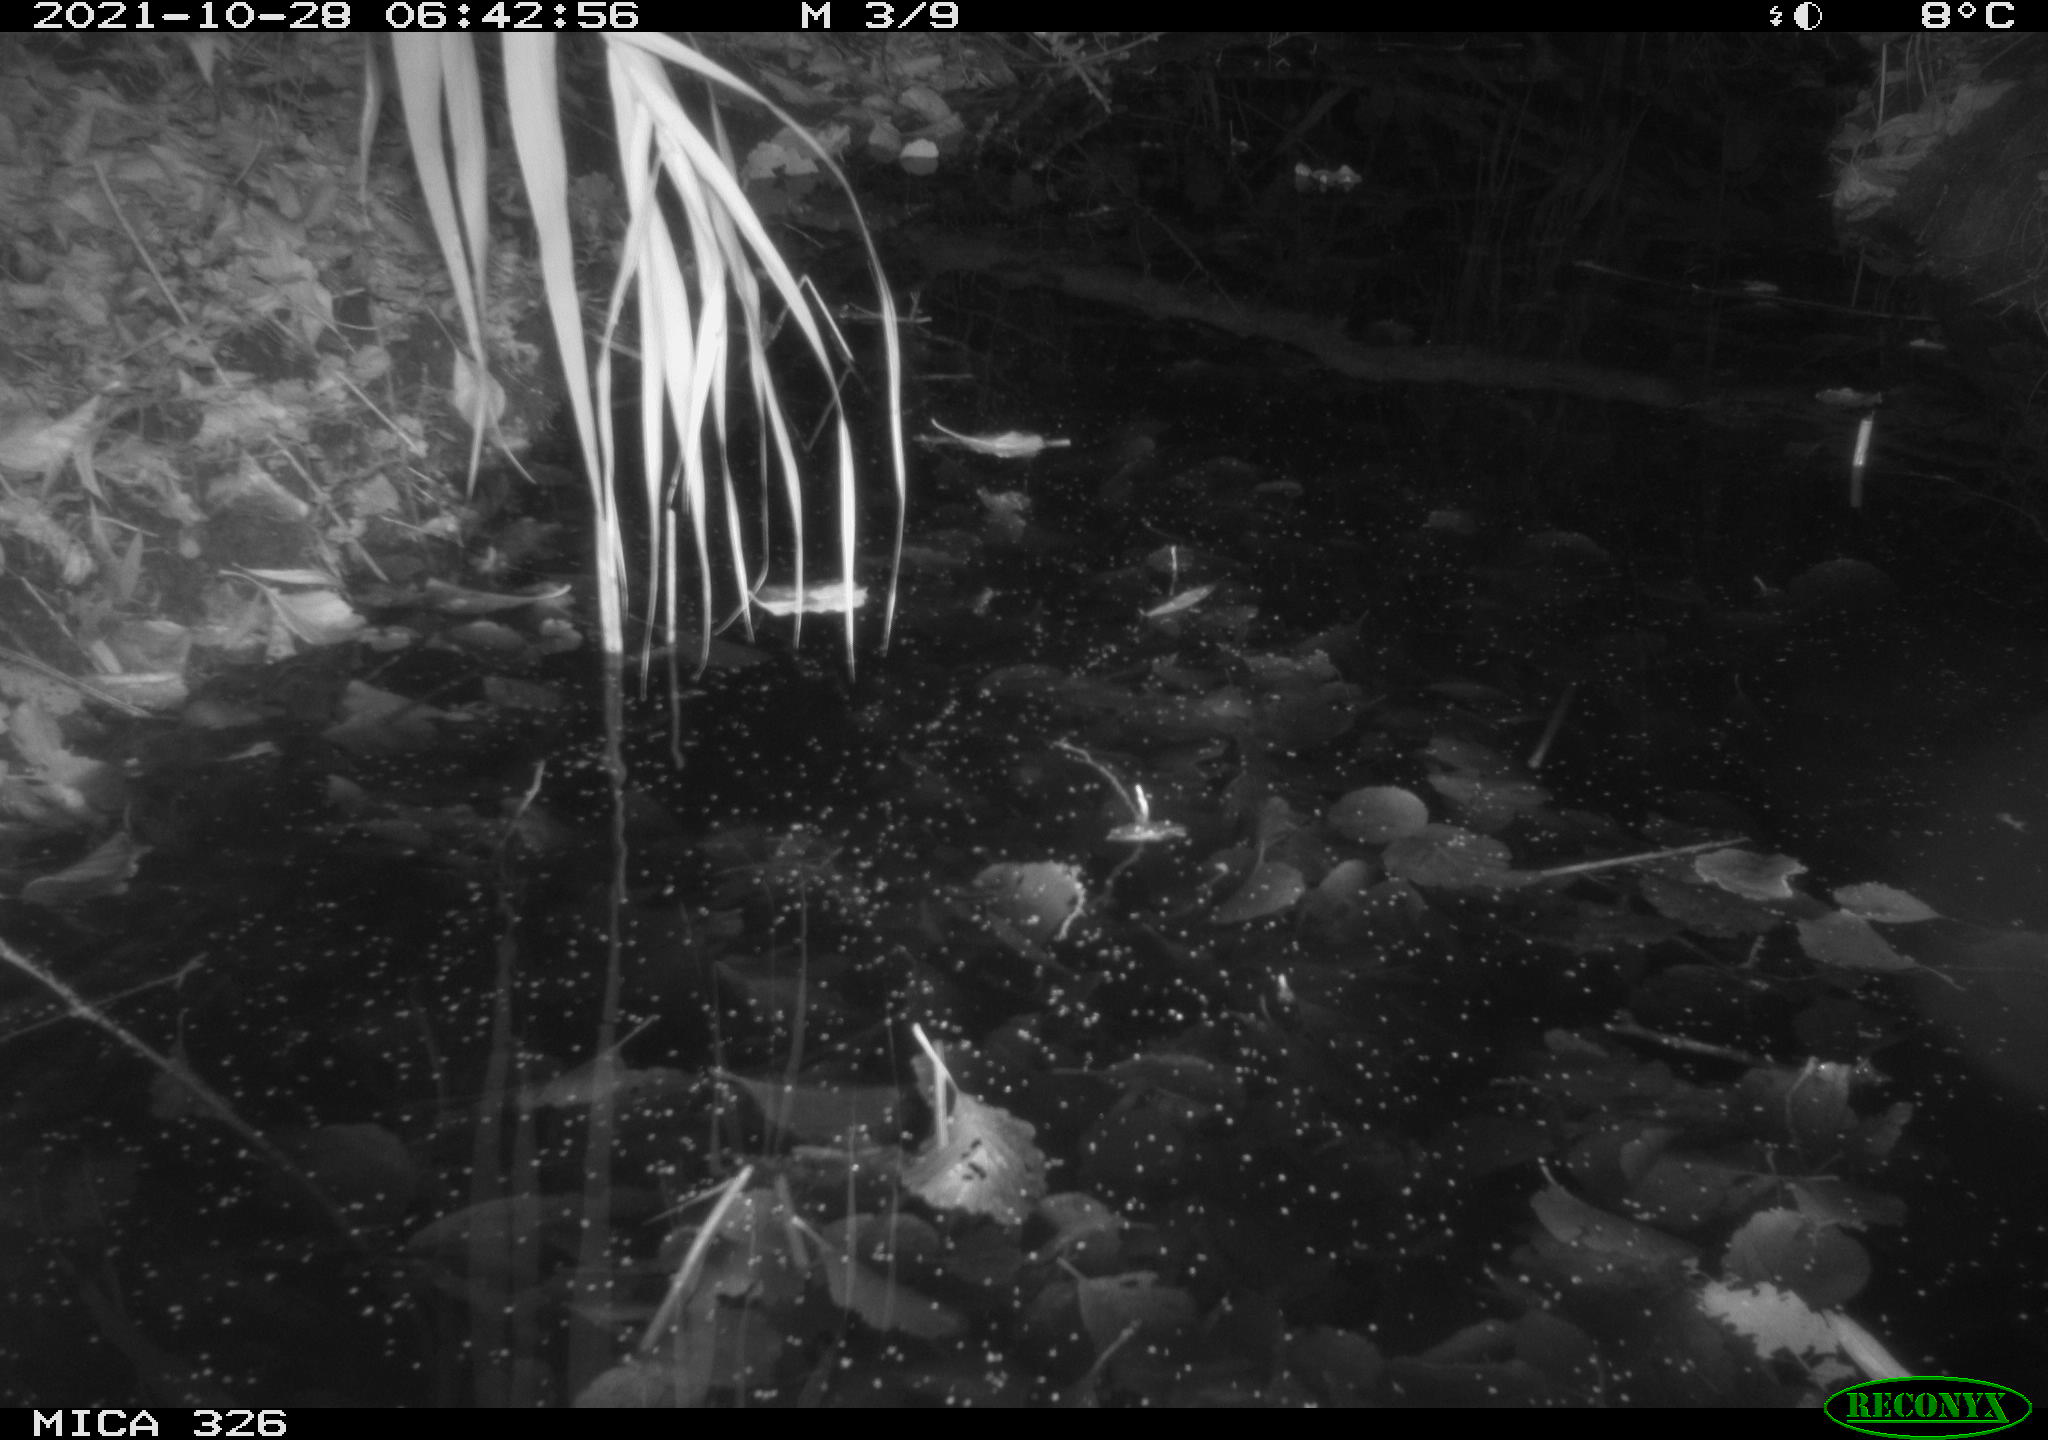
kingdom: Animalia
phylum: Chordata
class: Mammalia
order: Rodentia
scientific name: Rodentia
